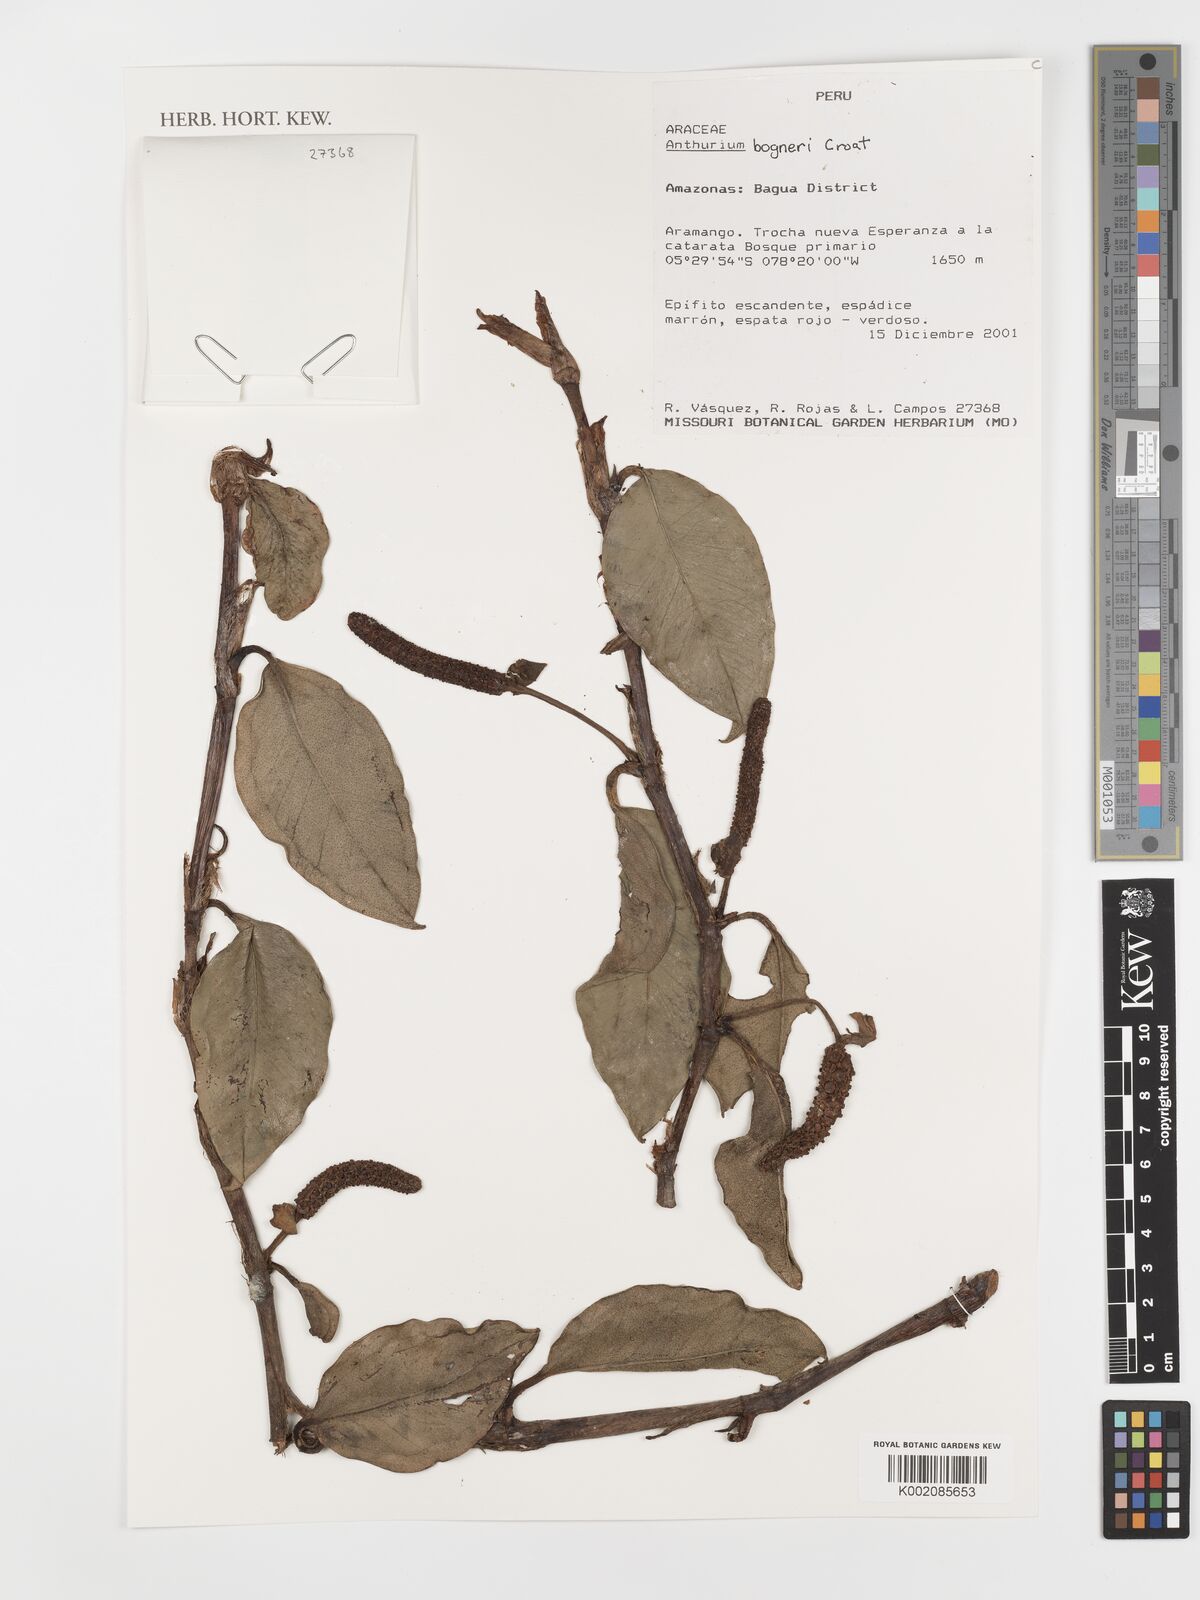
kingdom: Plantae
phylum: Tracheophyta
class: Liliopsida
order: Alismatales
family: Araceae
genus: Anthurium
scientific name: Anthurium bogneri
